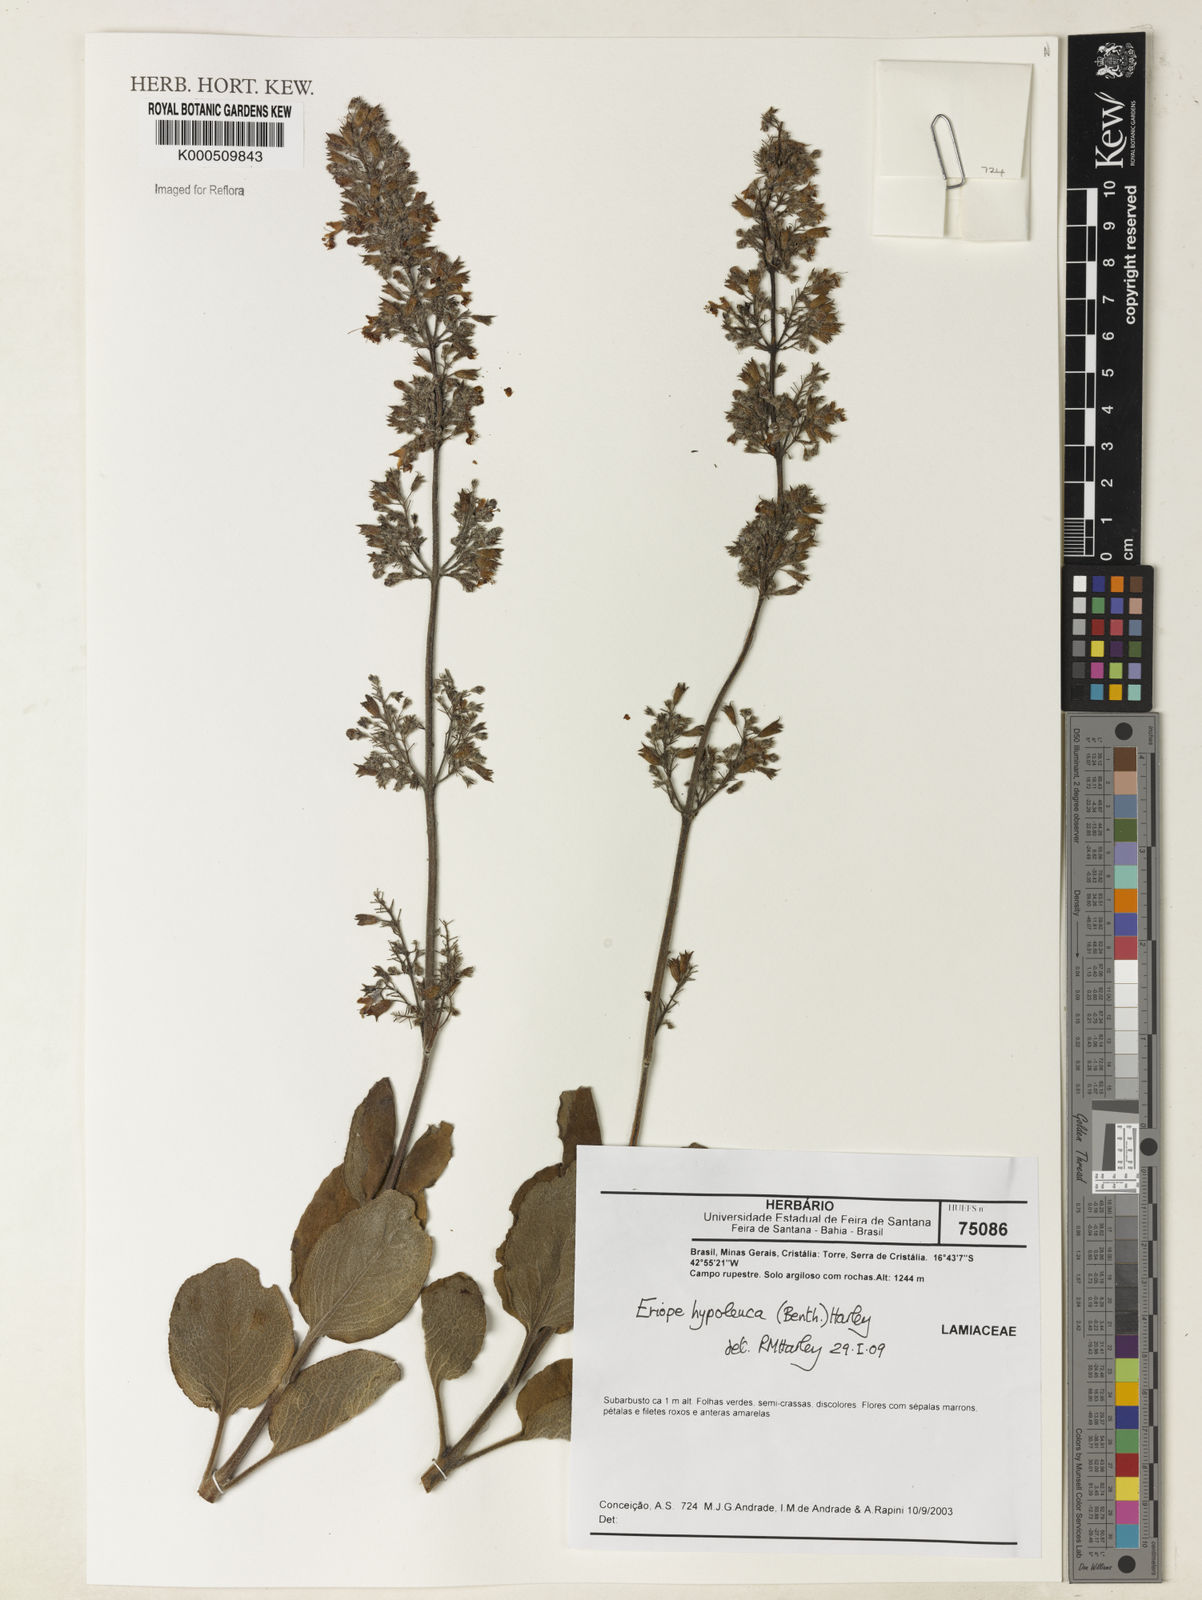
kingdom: Plantae
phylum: Tracheophyta
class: Magnoliopsida
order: Lamiales
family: Lamiaceae
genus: Eriope
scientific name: Eriope hypoleuca
